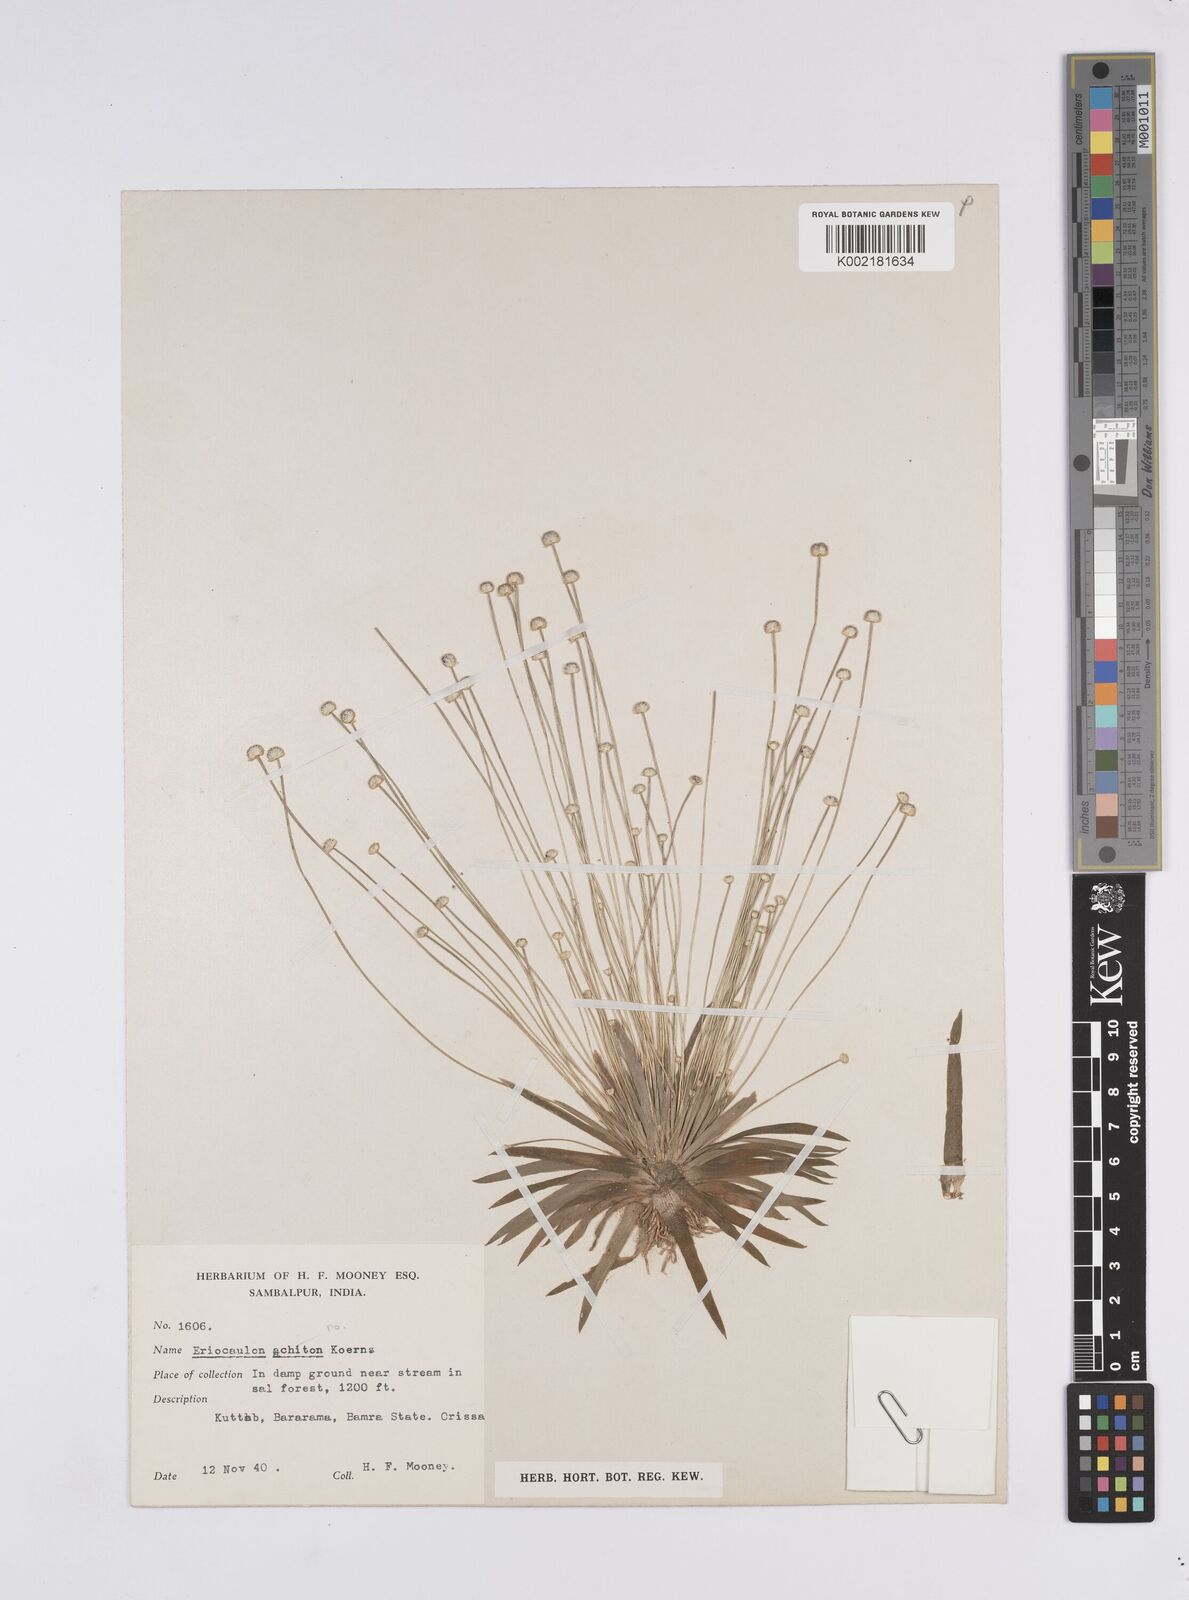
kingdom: Plantae
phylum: Tracheophyta
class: Liliopsida
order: Poales
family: Eriocaulaceae
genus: Eriocaulon
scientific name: Eriocaulon achiton
